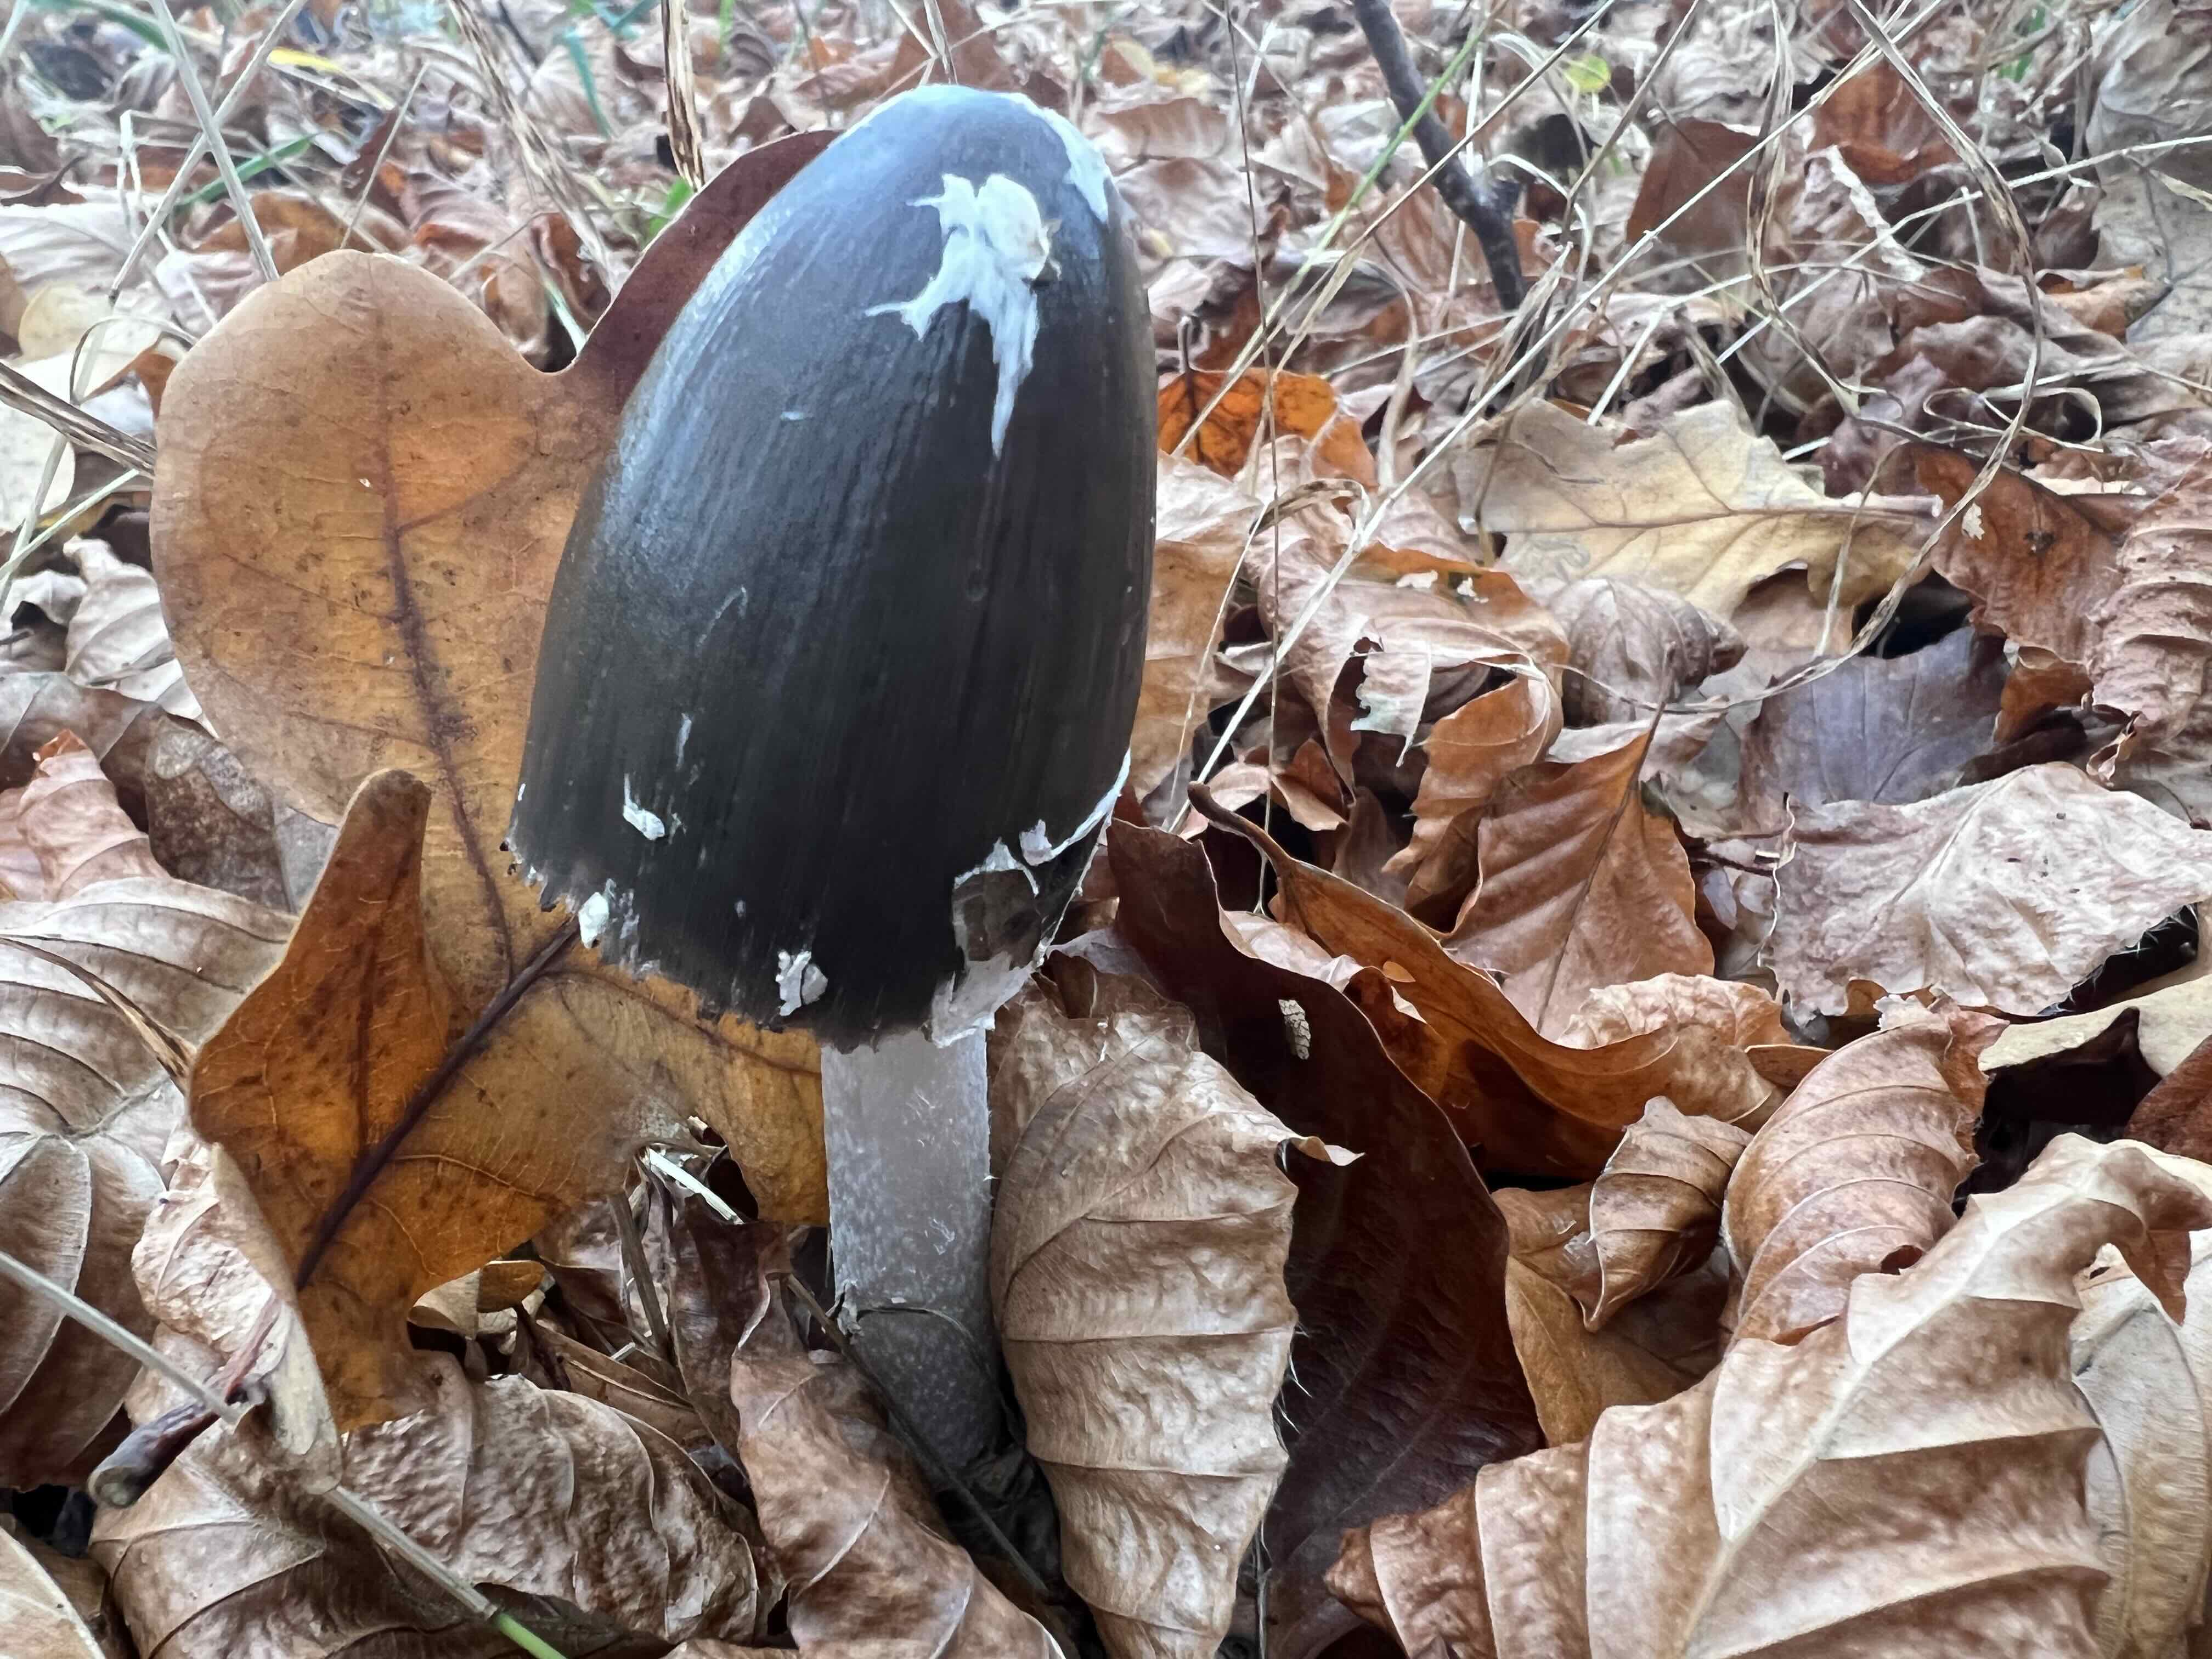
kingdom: Fungi
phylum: Basidiomycota
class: Agaricomycetes
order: Agaricales
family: Psathyrellaceae
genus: Coprinopsis
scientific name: Coprinopsis picacea
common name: skade-blækhat
